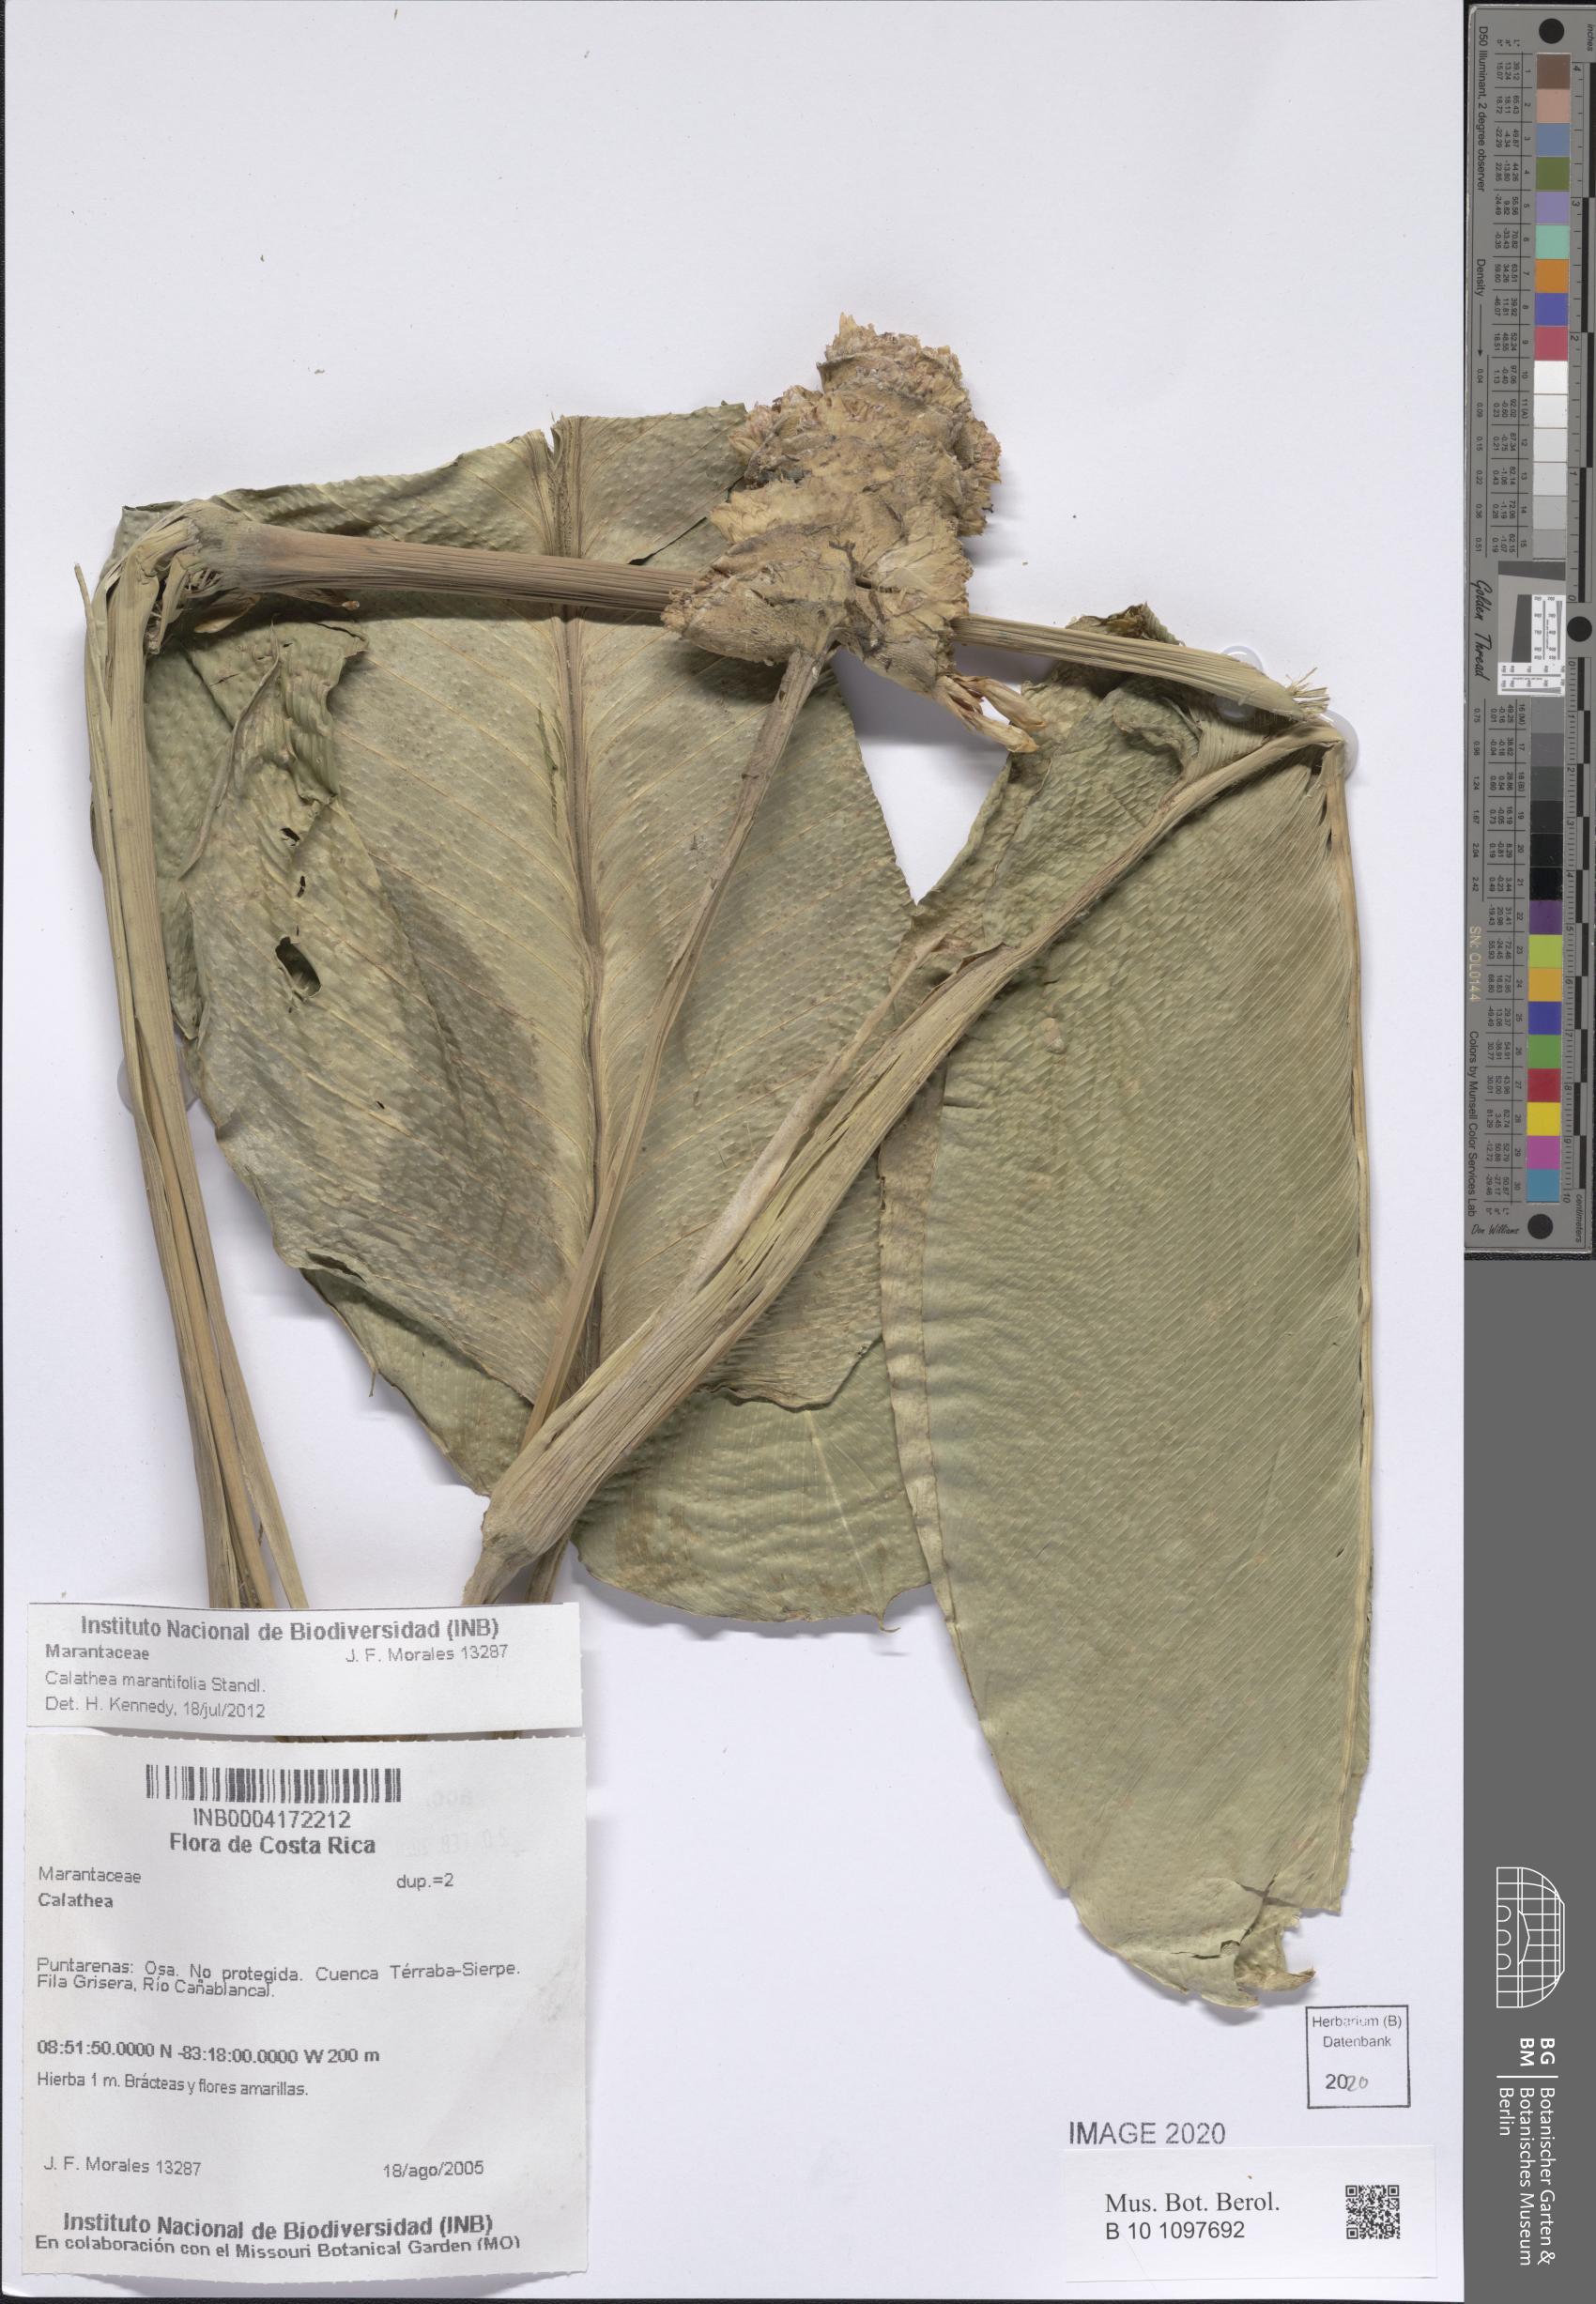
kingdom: Plantae
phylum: Tracheophyta
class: Liliopsida
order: Zingiberales
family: Marantaceae
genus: Goeppertia
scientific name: Goeppertia marantifolia
